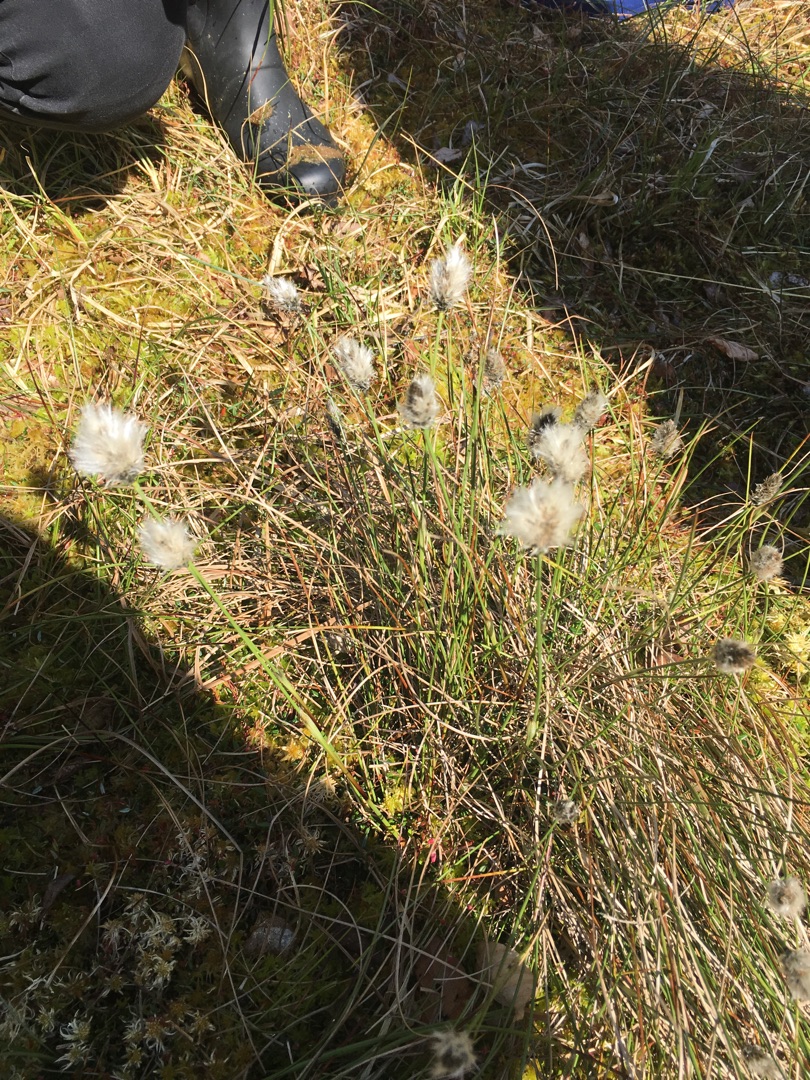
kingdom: Plantae
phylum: Tracheophyta
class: Liliopsida
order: Poales
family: Cyperaceae
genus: Eriophorum
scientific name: Eriophorum vaginatum
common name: Tue-kæruld
